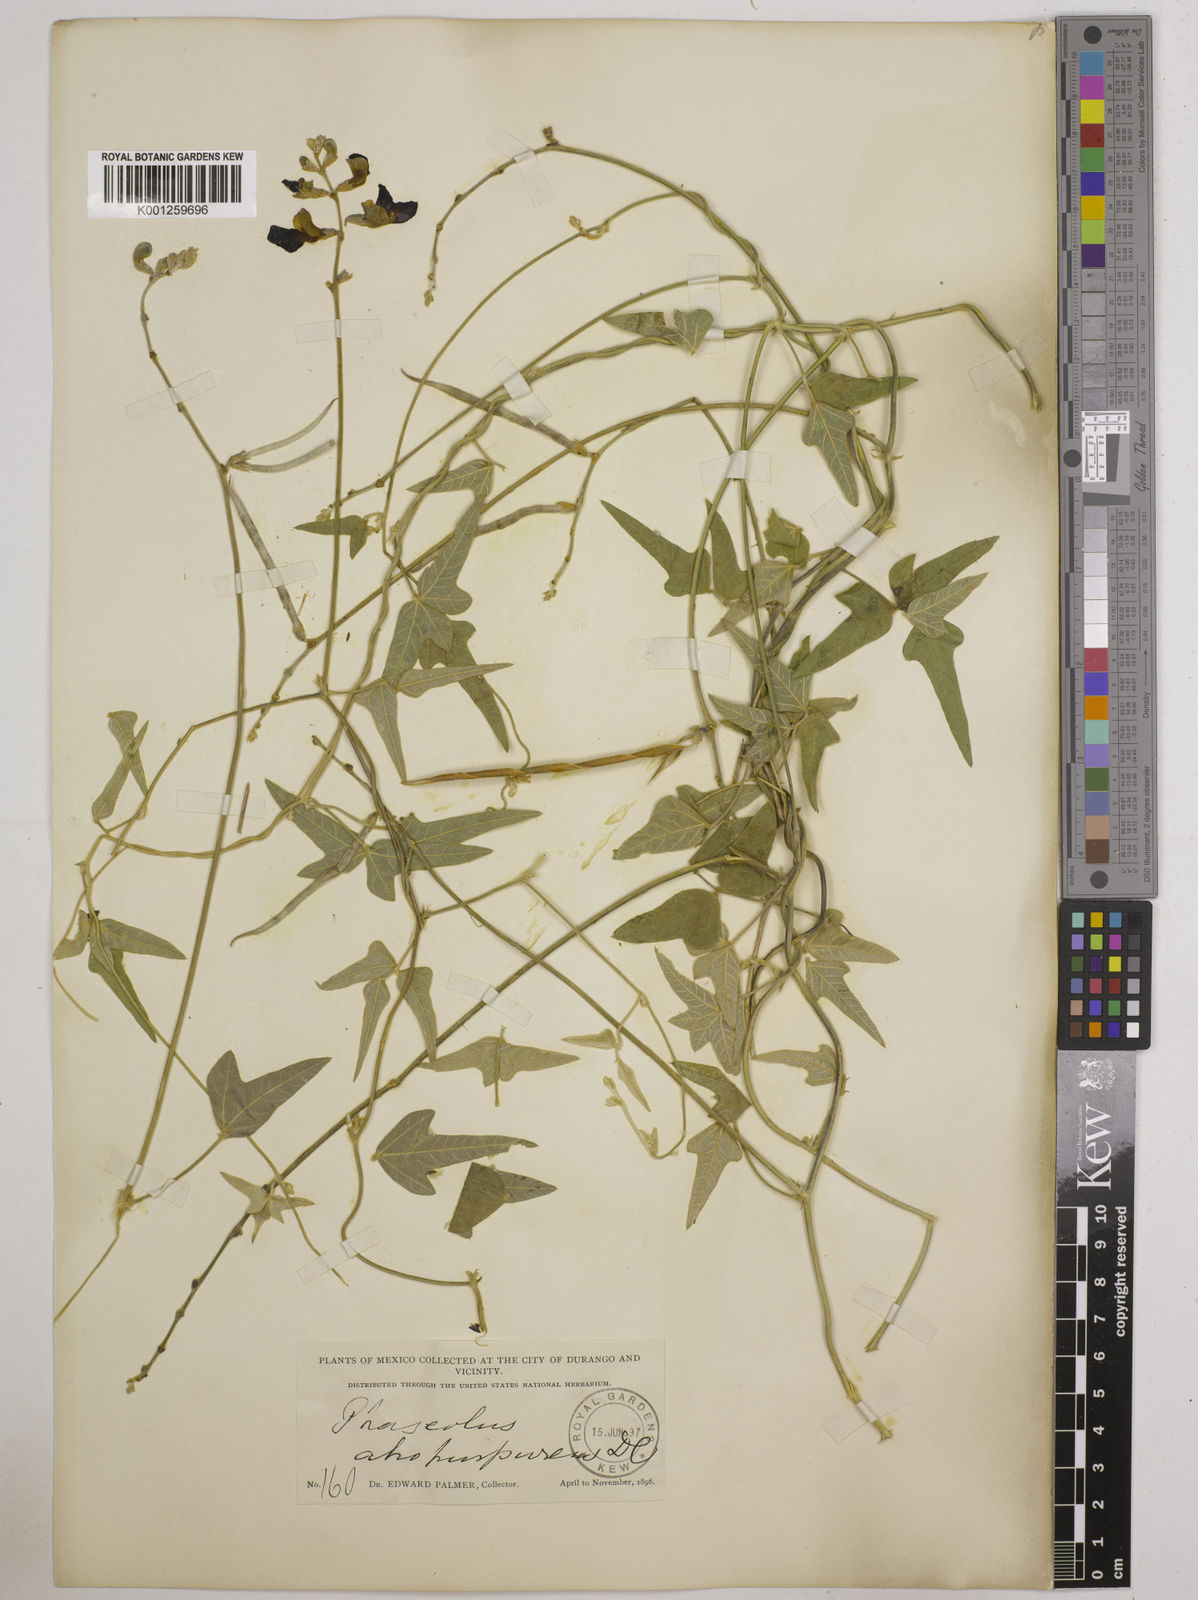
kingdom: Plantae
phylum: Tracheophyta
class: Magnoliopsida
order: Fabales
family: Fabaceae
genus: Macroptilium
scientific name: Macroptilium atropurpureum
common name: Purple bushbean
